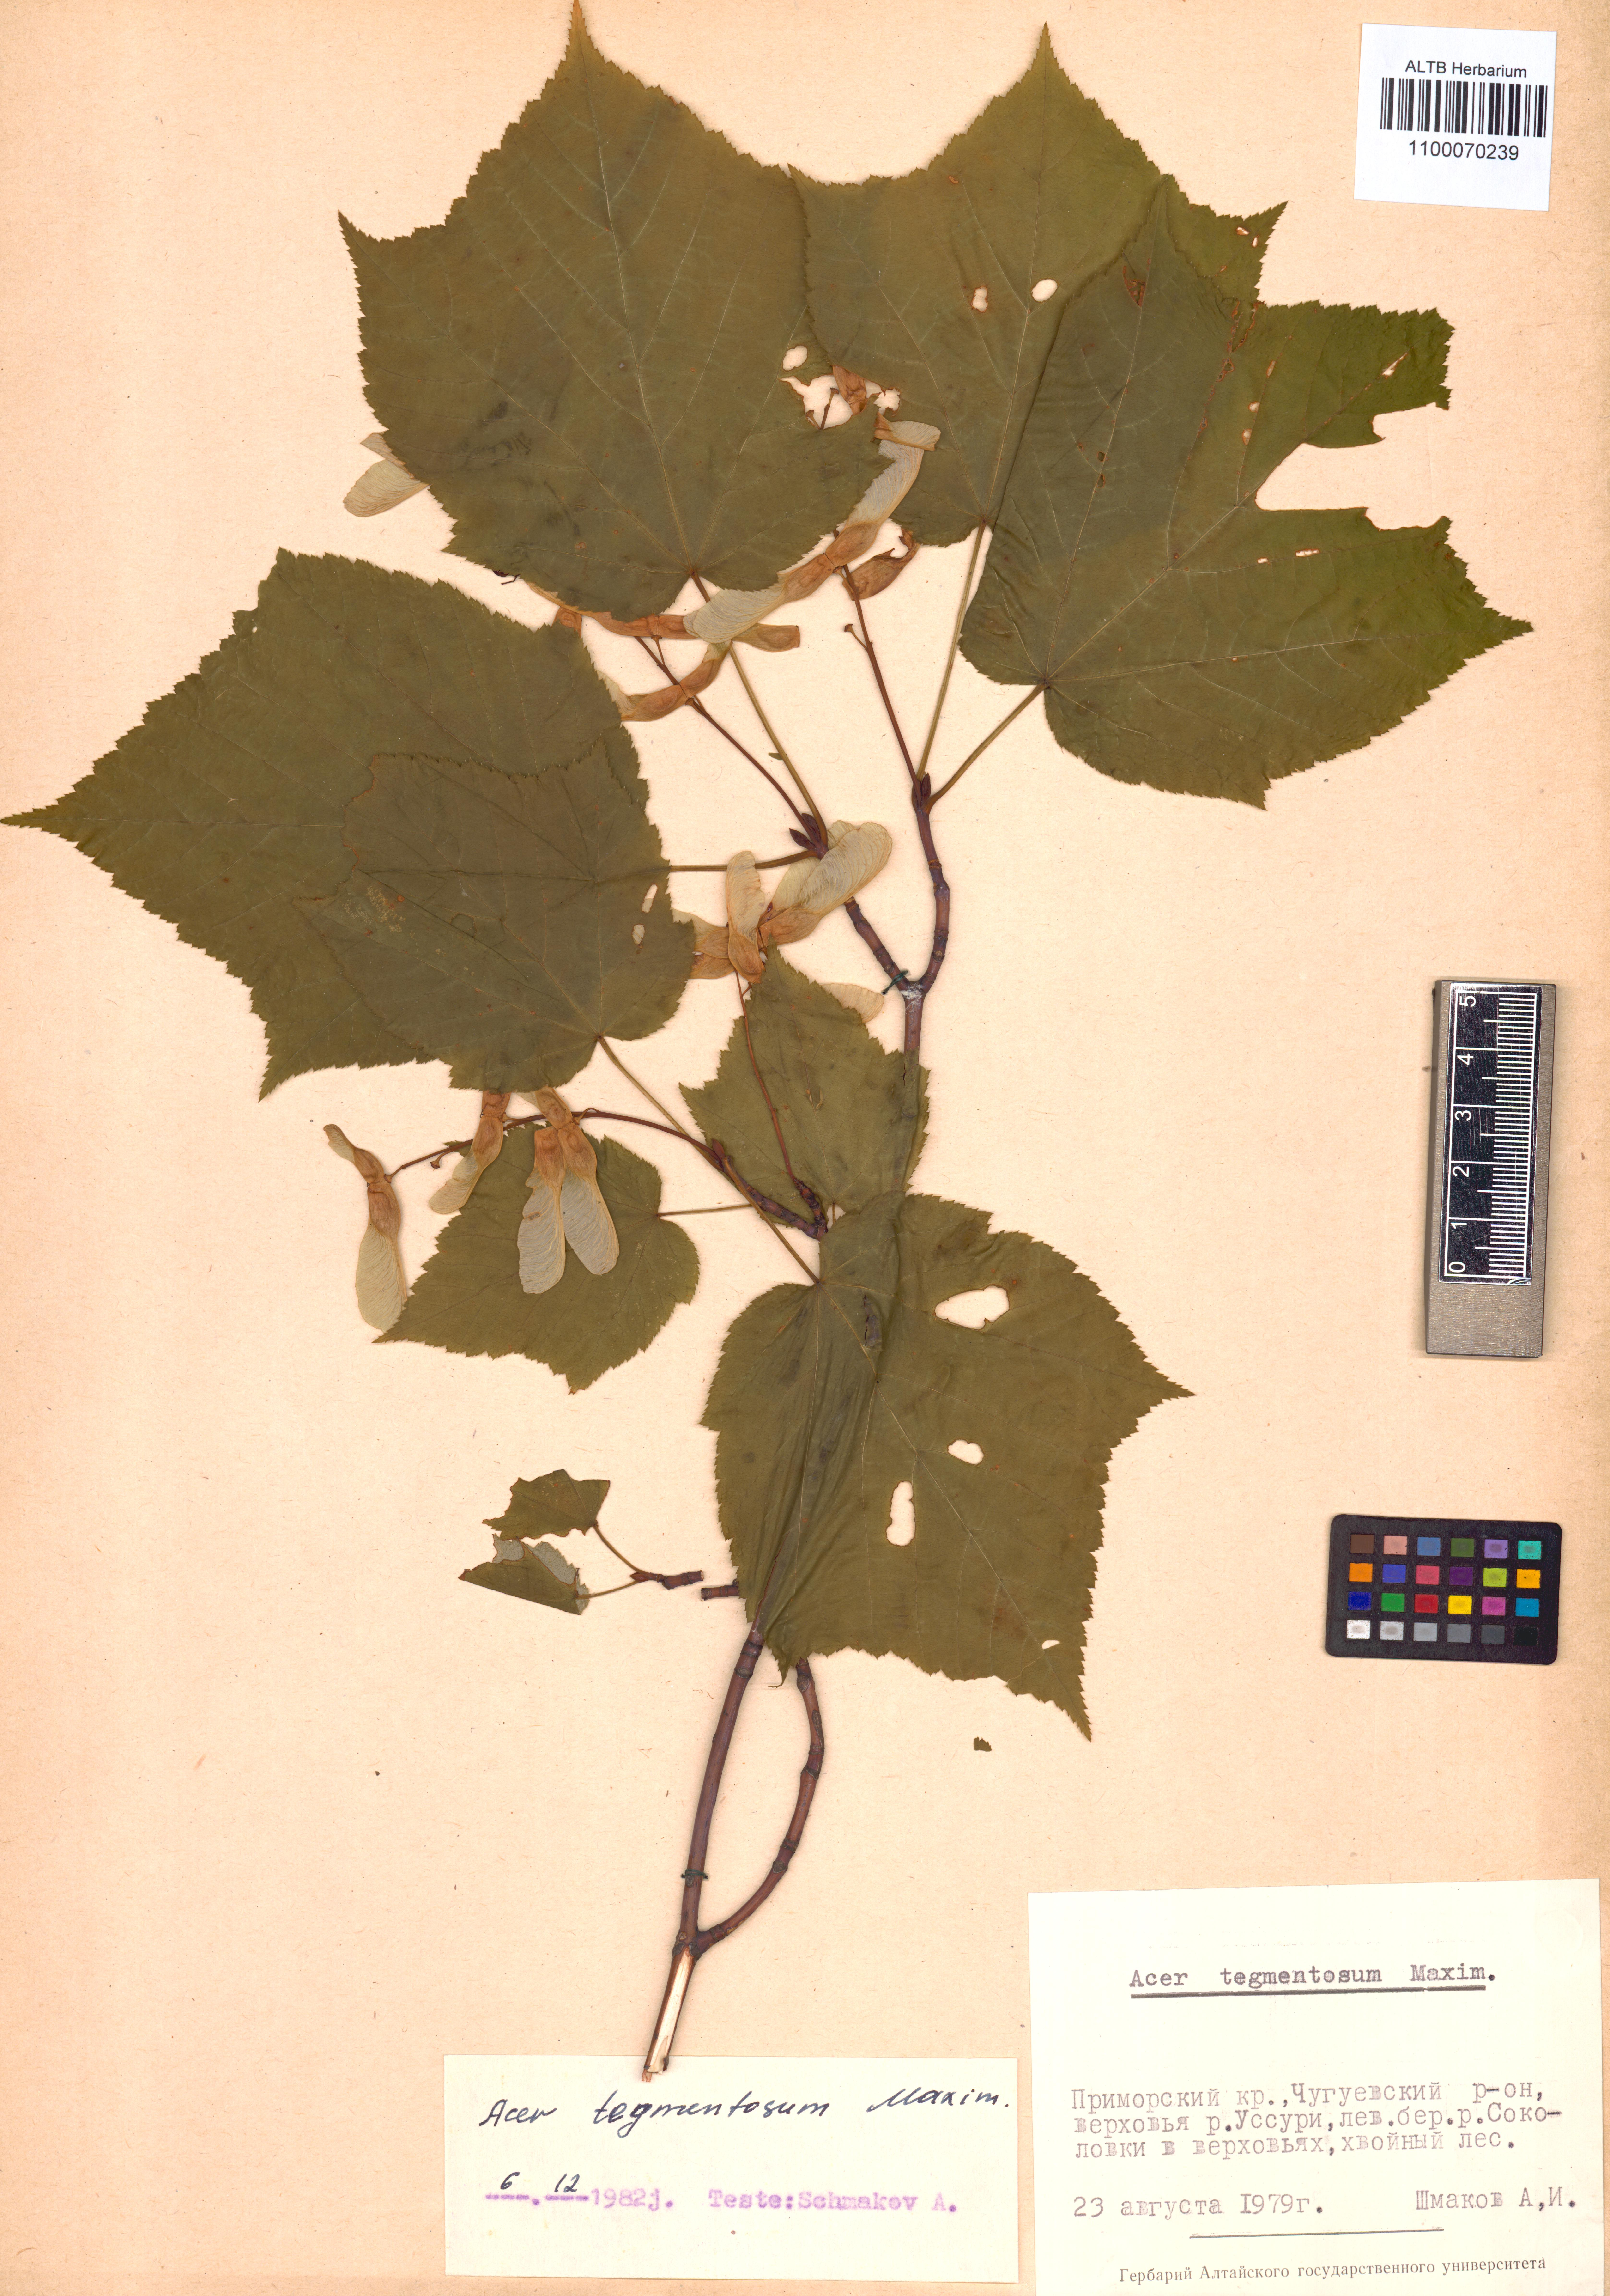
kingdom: Plantae
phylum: Tracheophyta
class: Magnoliopsida
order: Sapindales
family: Sapindaceae
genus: Acer
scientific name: Acer tegmentosum
